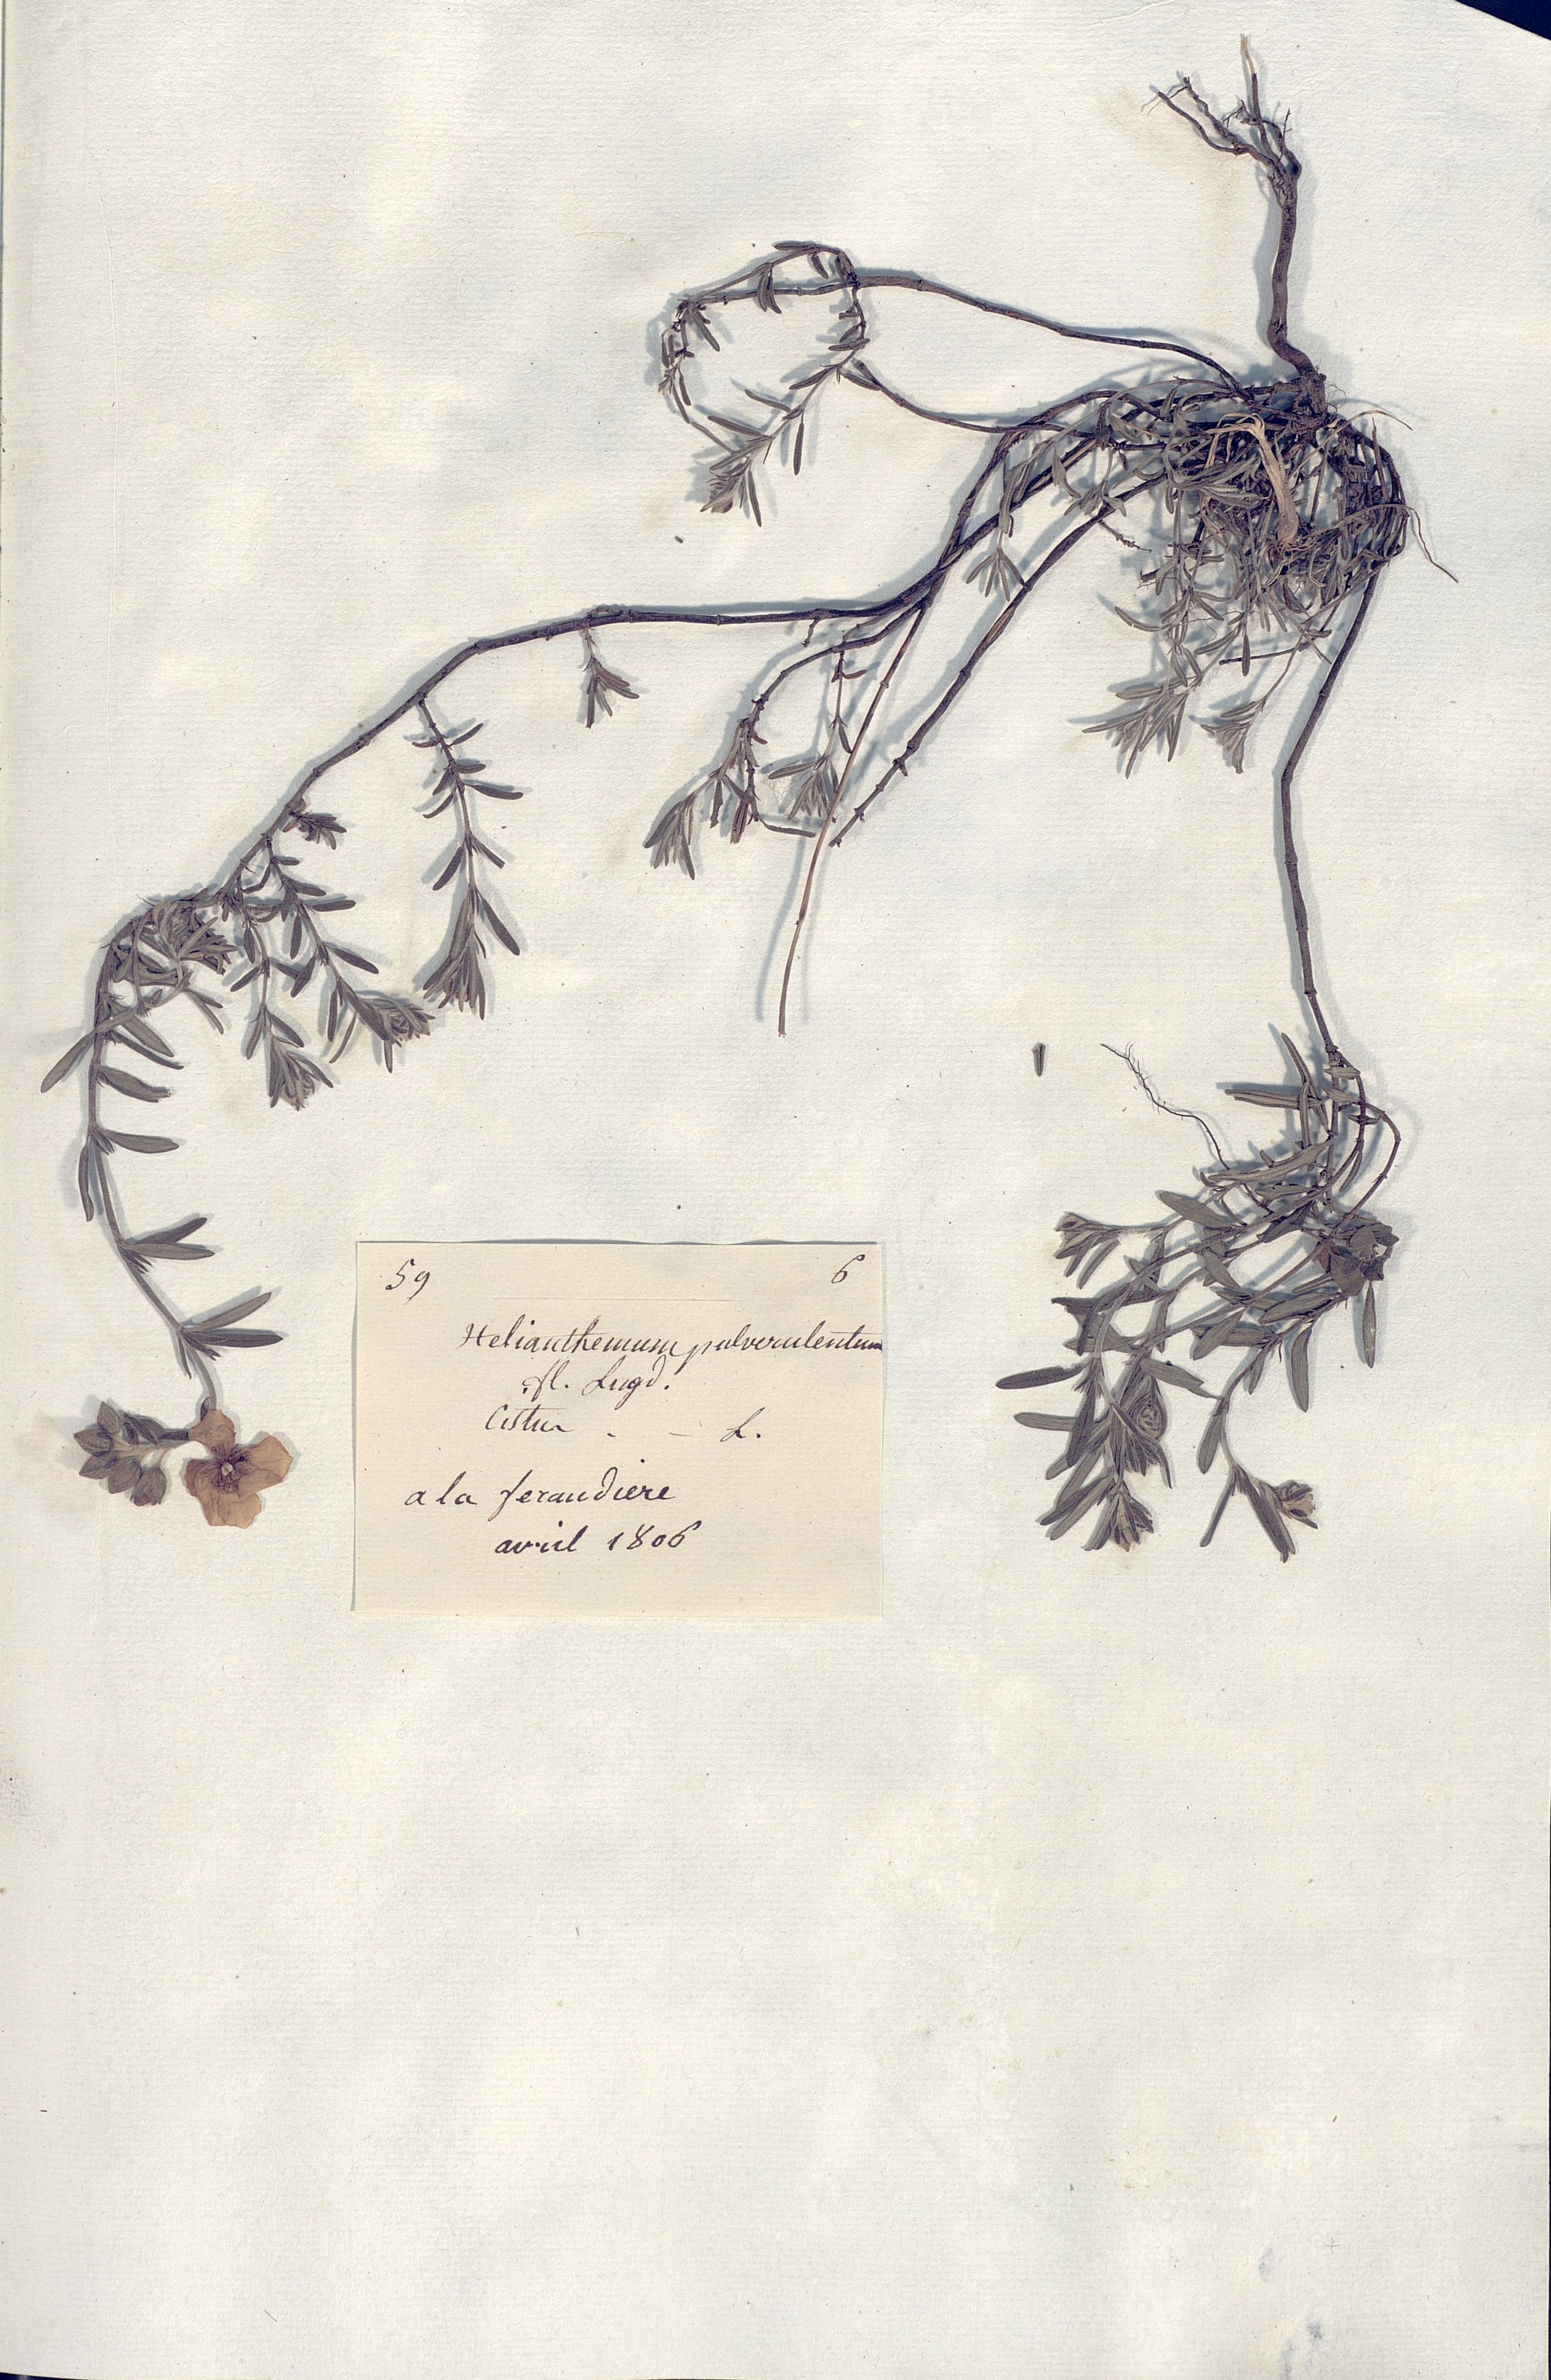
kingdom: Plantae
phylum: Tracheophyta
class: Magnoliopsida
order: Malvales
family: Cistaceae
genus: Helianthemum
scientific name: Helianthemum
